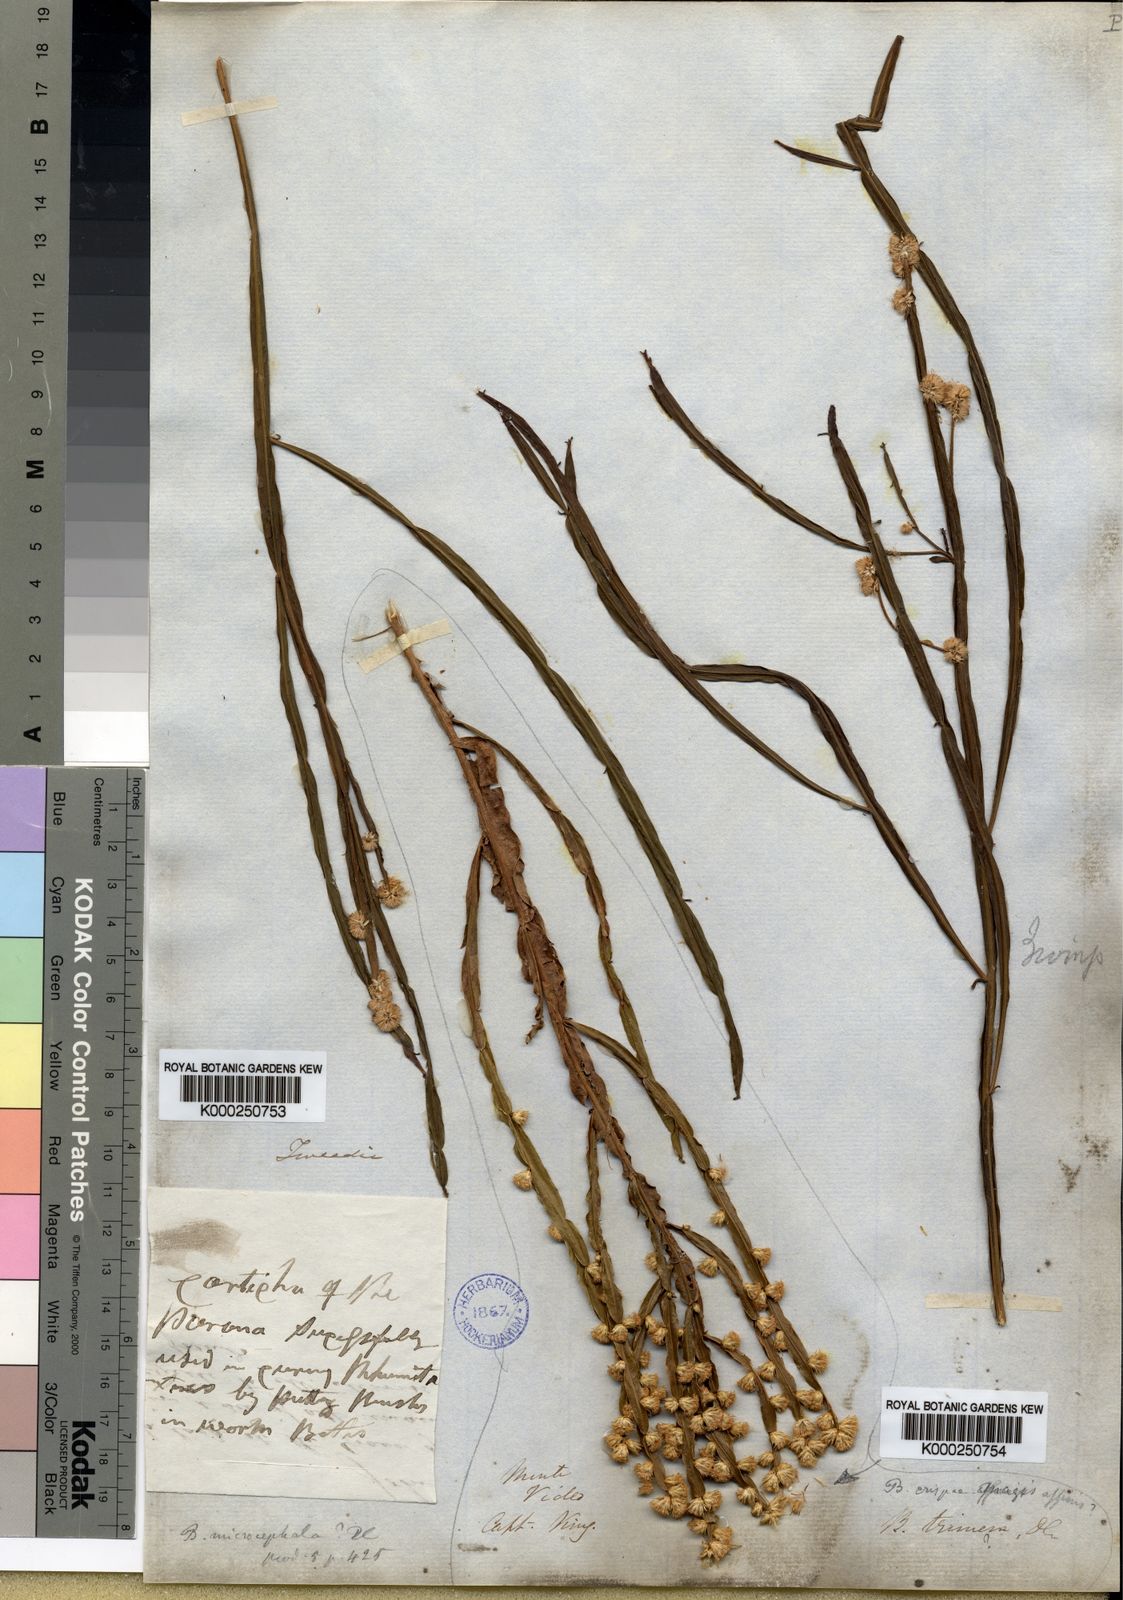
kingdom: Plantae
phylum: Tracheophyta
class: Magnoliopsida
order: Asterales
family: Asteraceae
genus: Baccharis
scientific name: Baccharis subtropicalis
